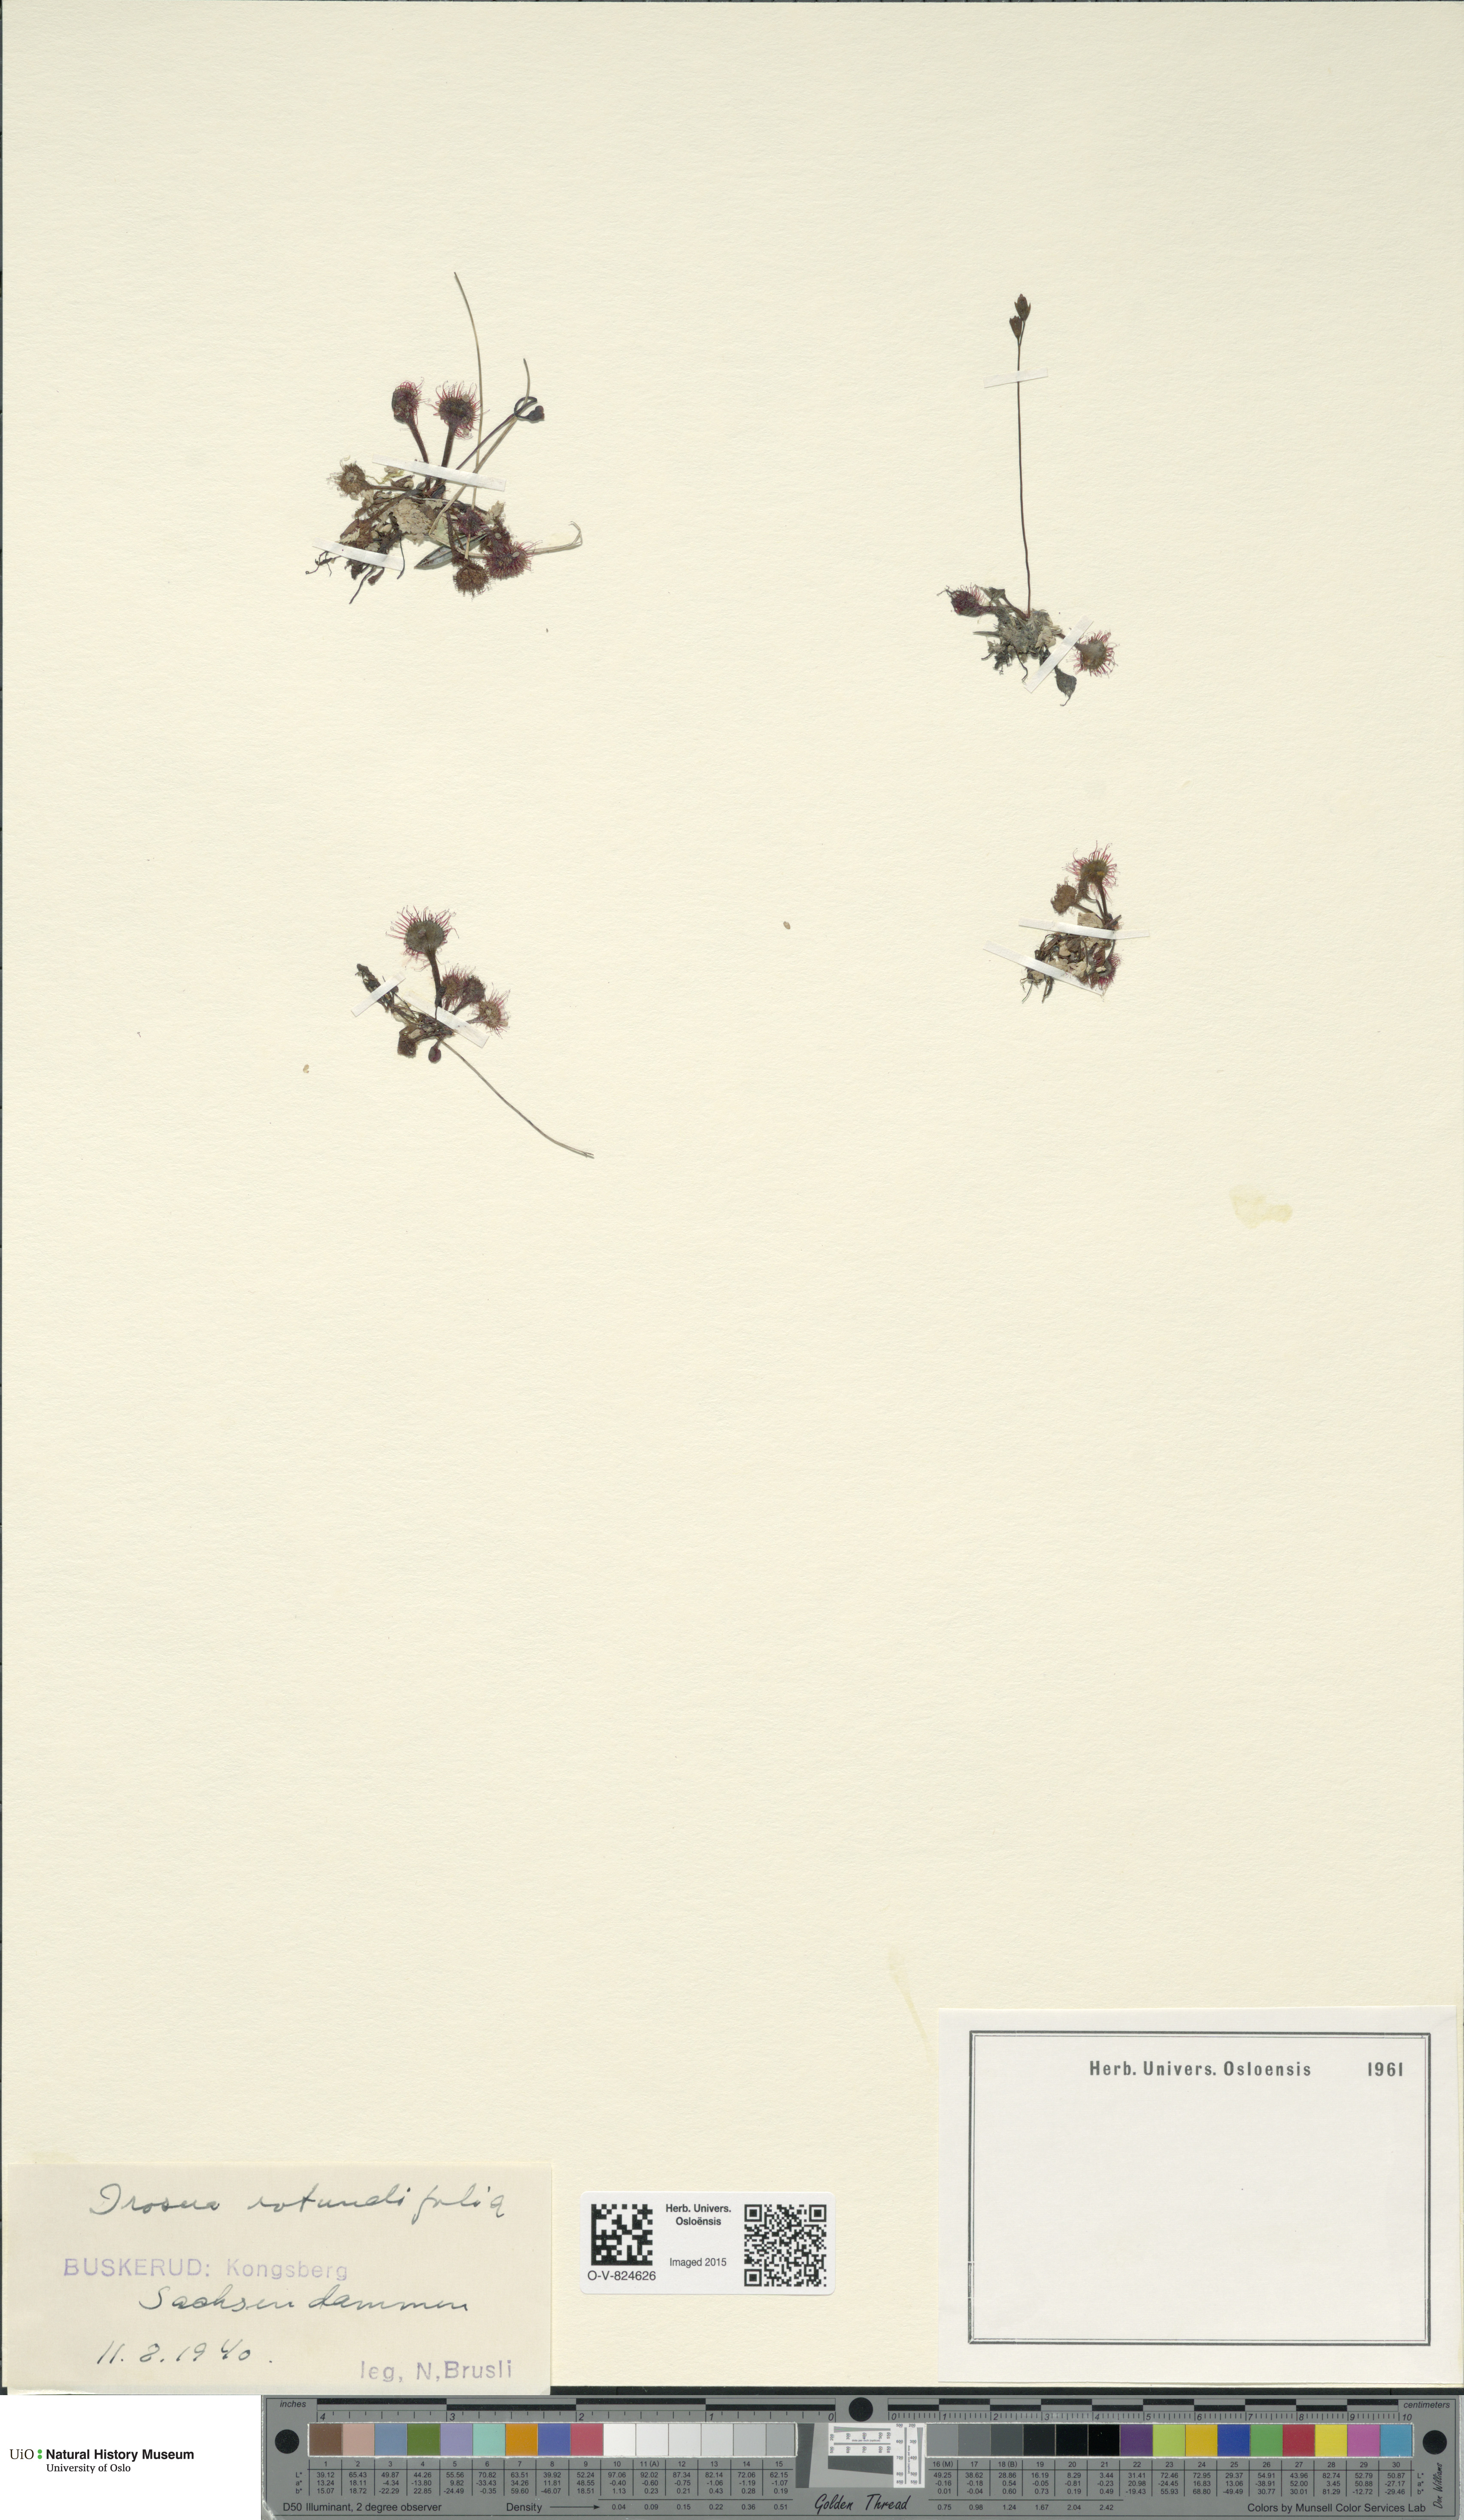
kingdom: Plantae
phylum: Tracheophyta
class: Magnoliopsida
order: Caryophyllales
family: Droseraceae
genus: Drosera
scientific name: Drosera rotundifolia
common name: Round-leaved sundew
